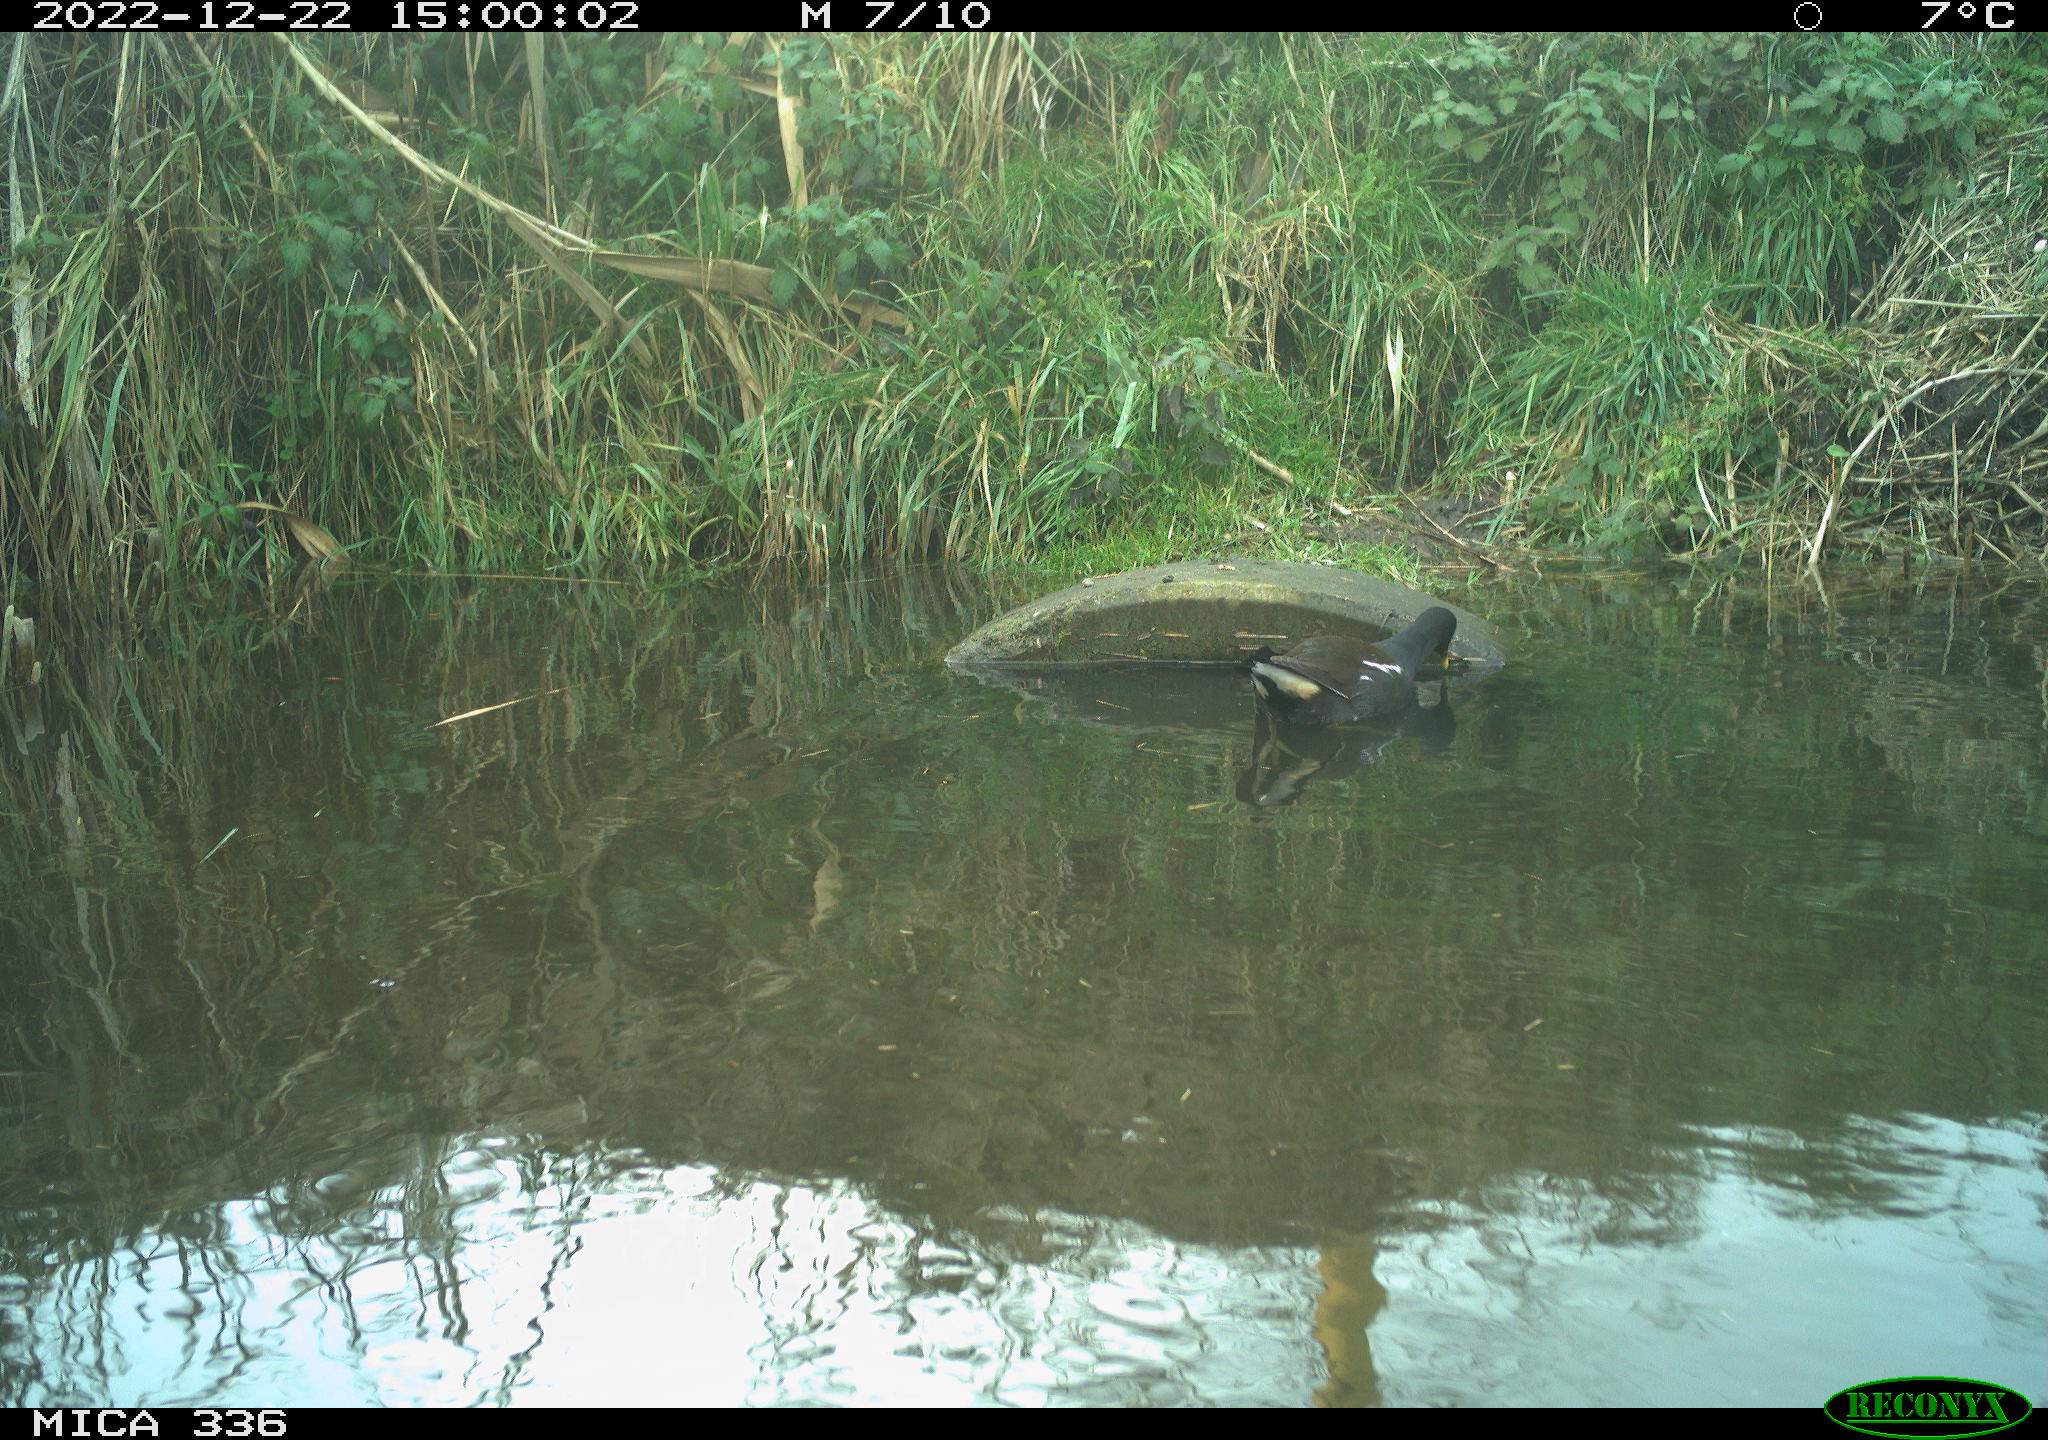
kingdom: Animalia
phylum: Chordata
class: Aves
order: Gruiformes
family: Rallidae
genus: Gallinula
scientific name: Gallinula chloropus
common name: Common moorhen
